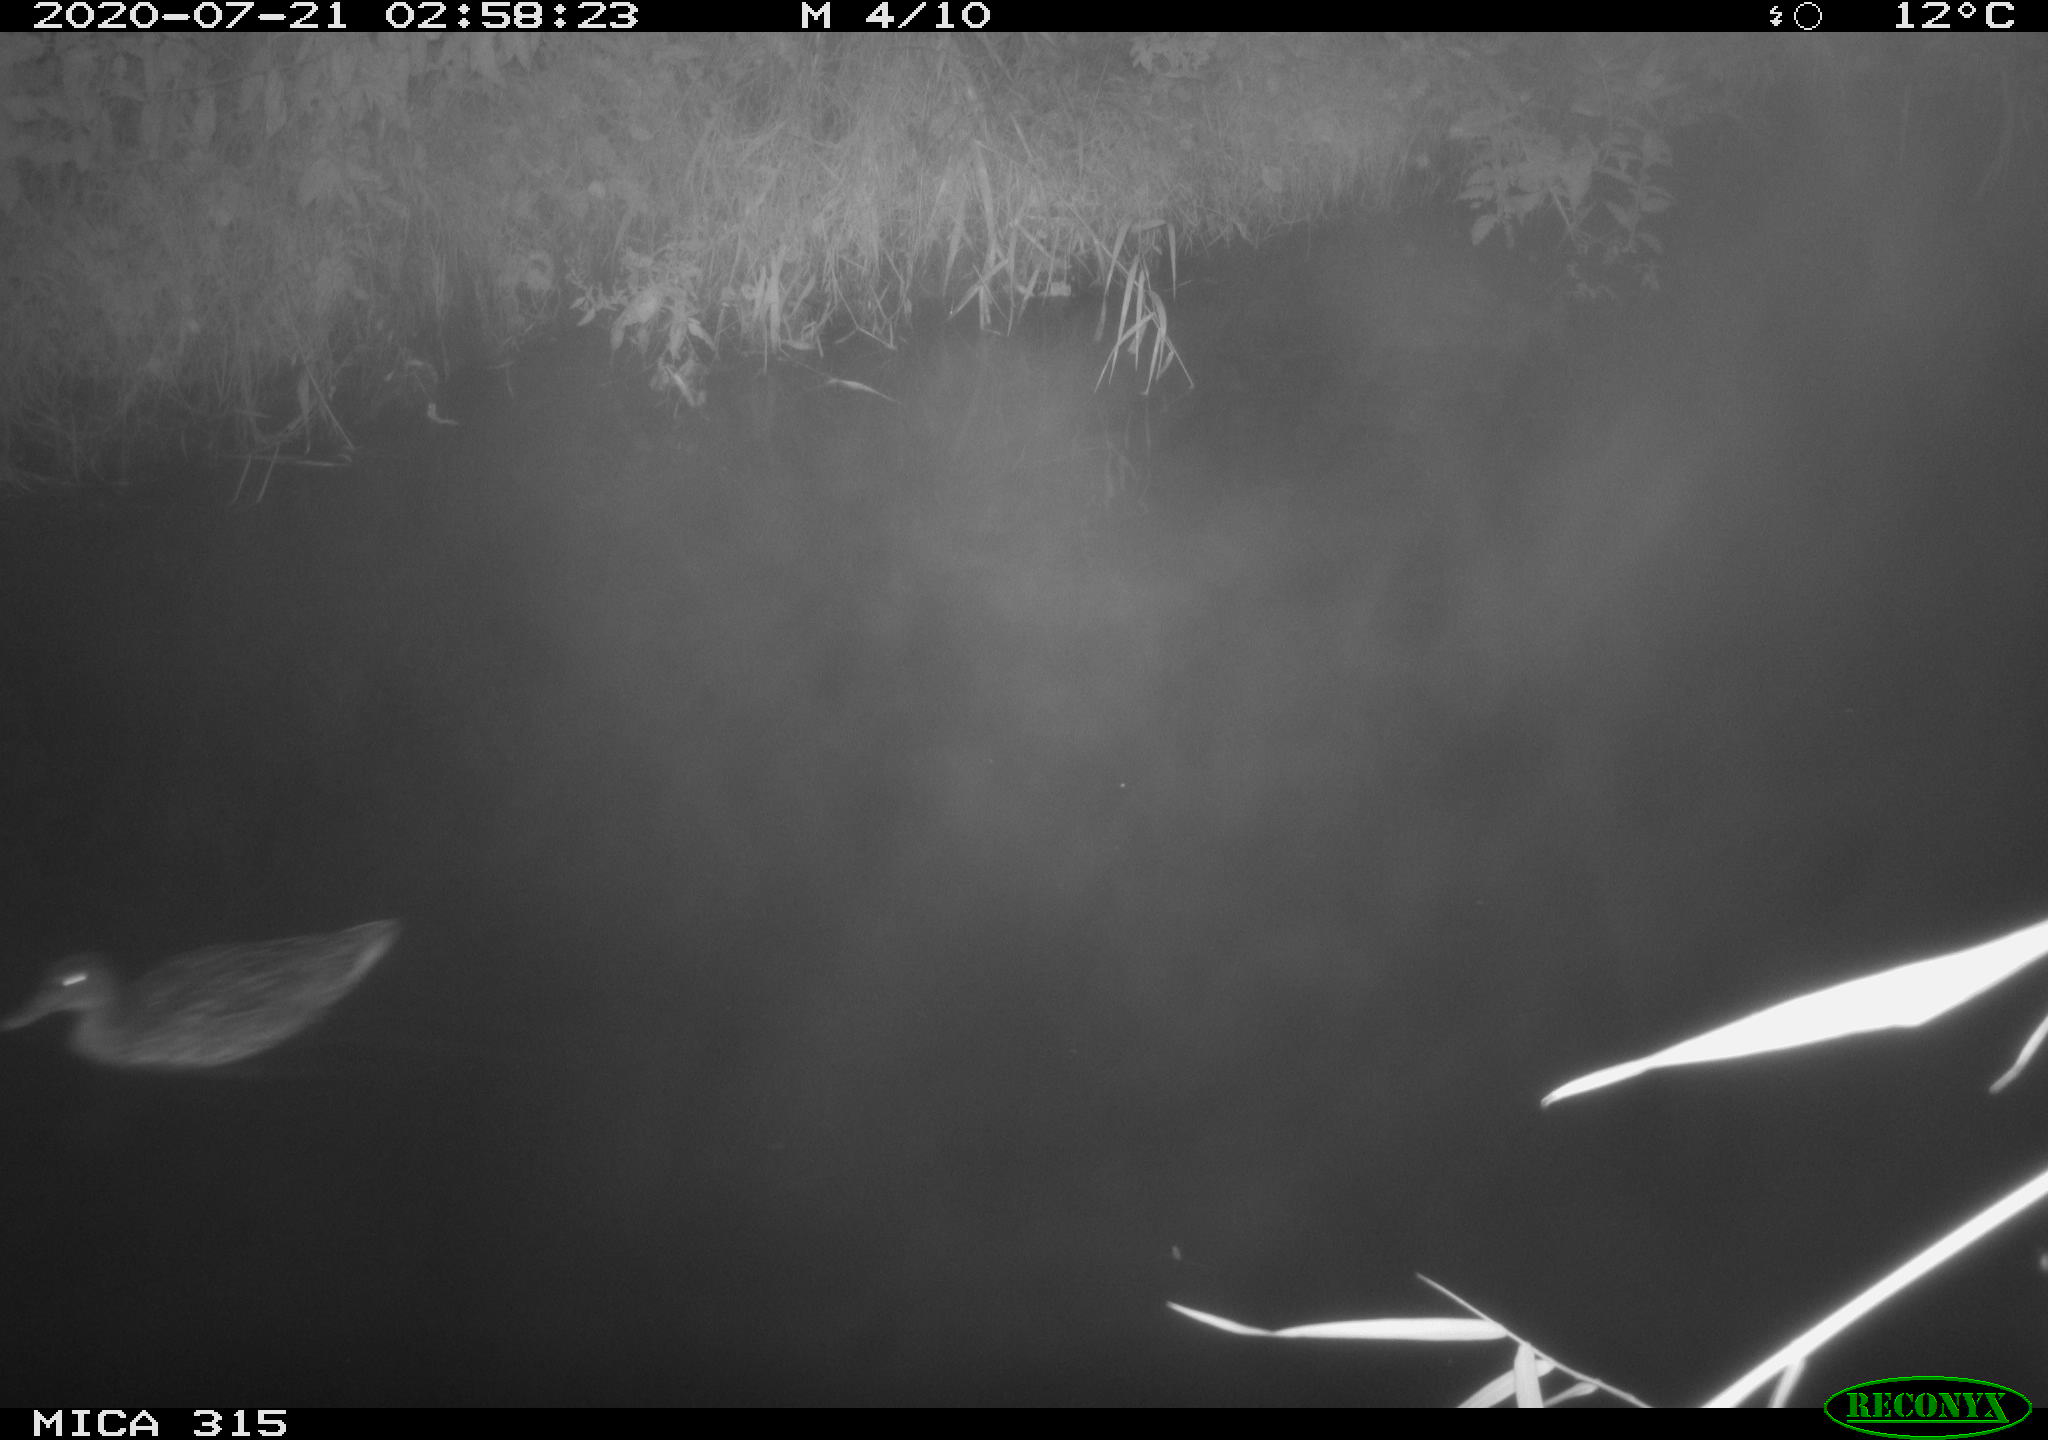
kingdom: Animalia
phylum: Chordata
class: Aves
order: Anseriformes
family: Anatidae
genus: Anas
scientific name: Anas platyrhynchos
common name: Mallard
